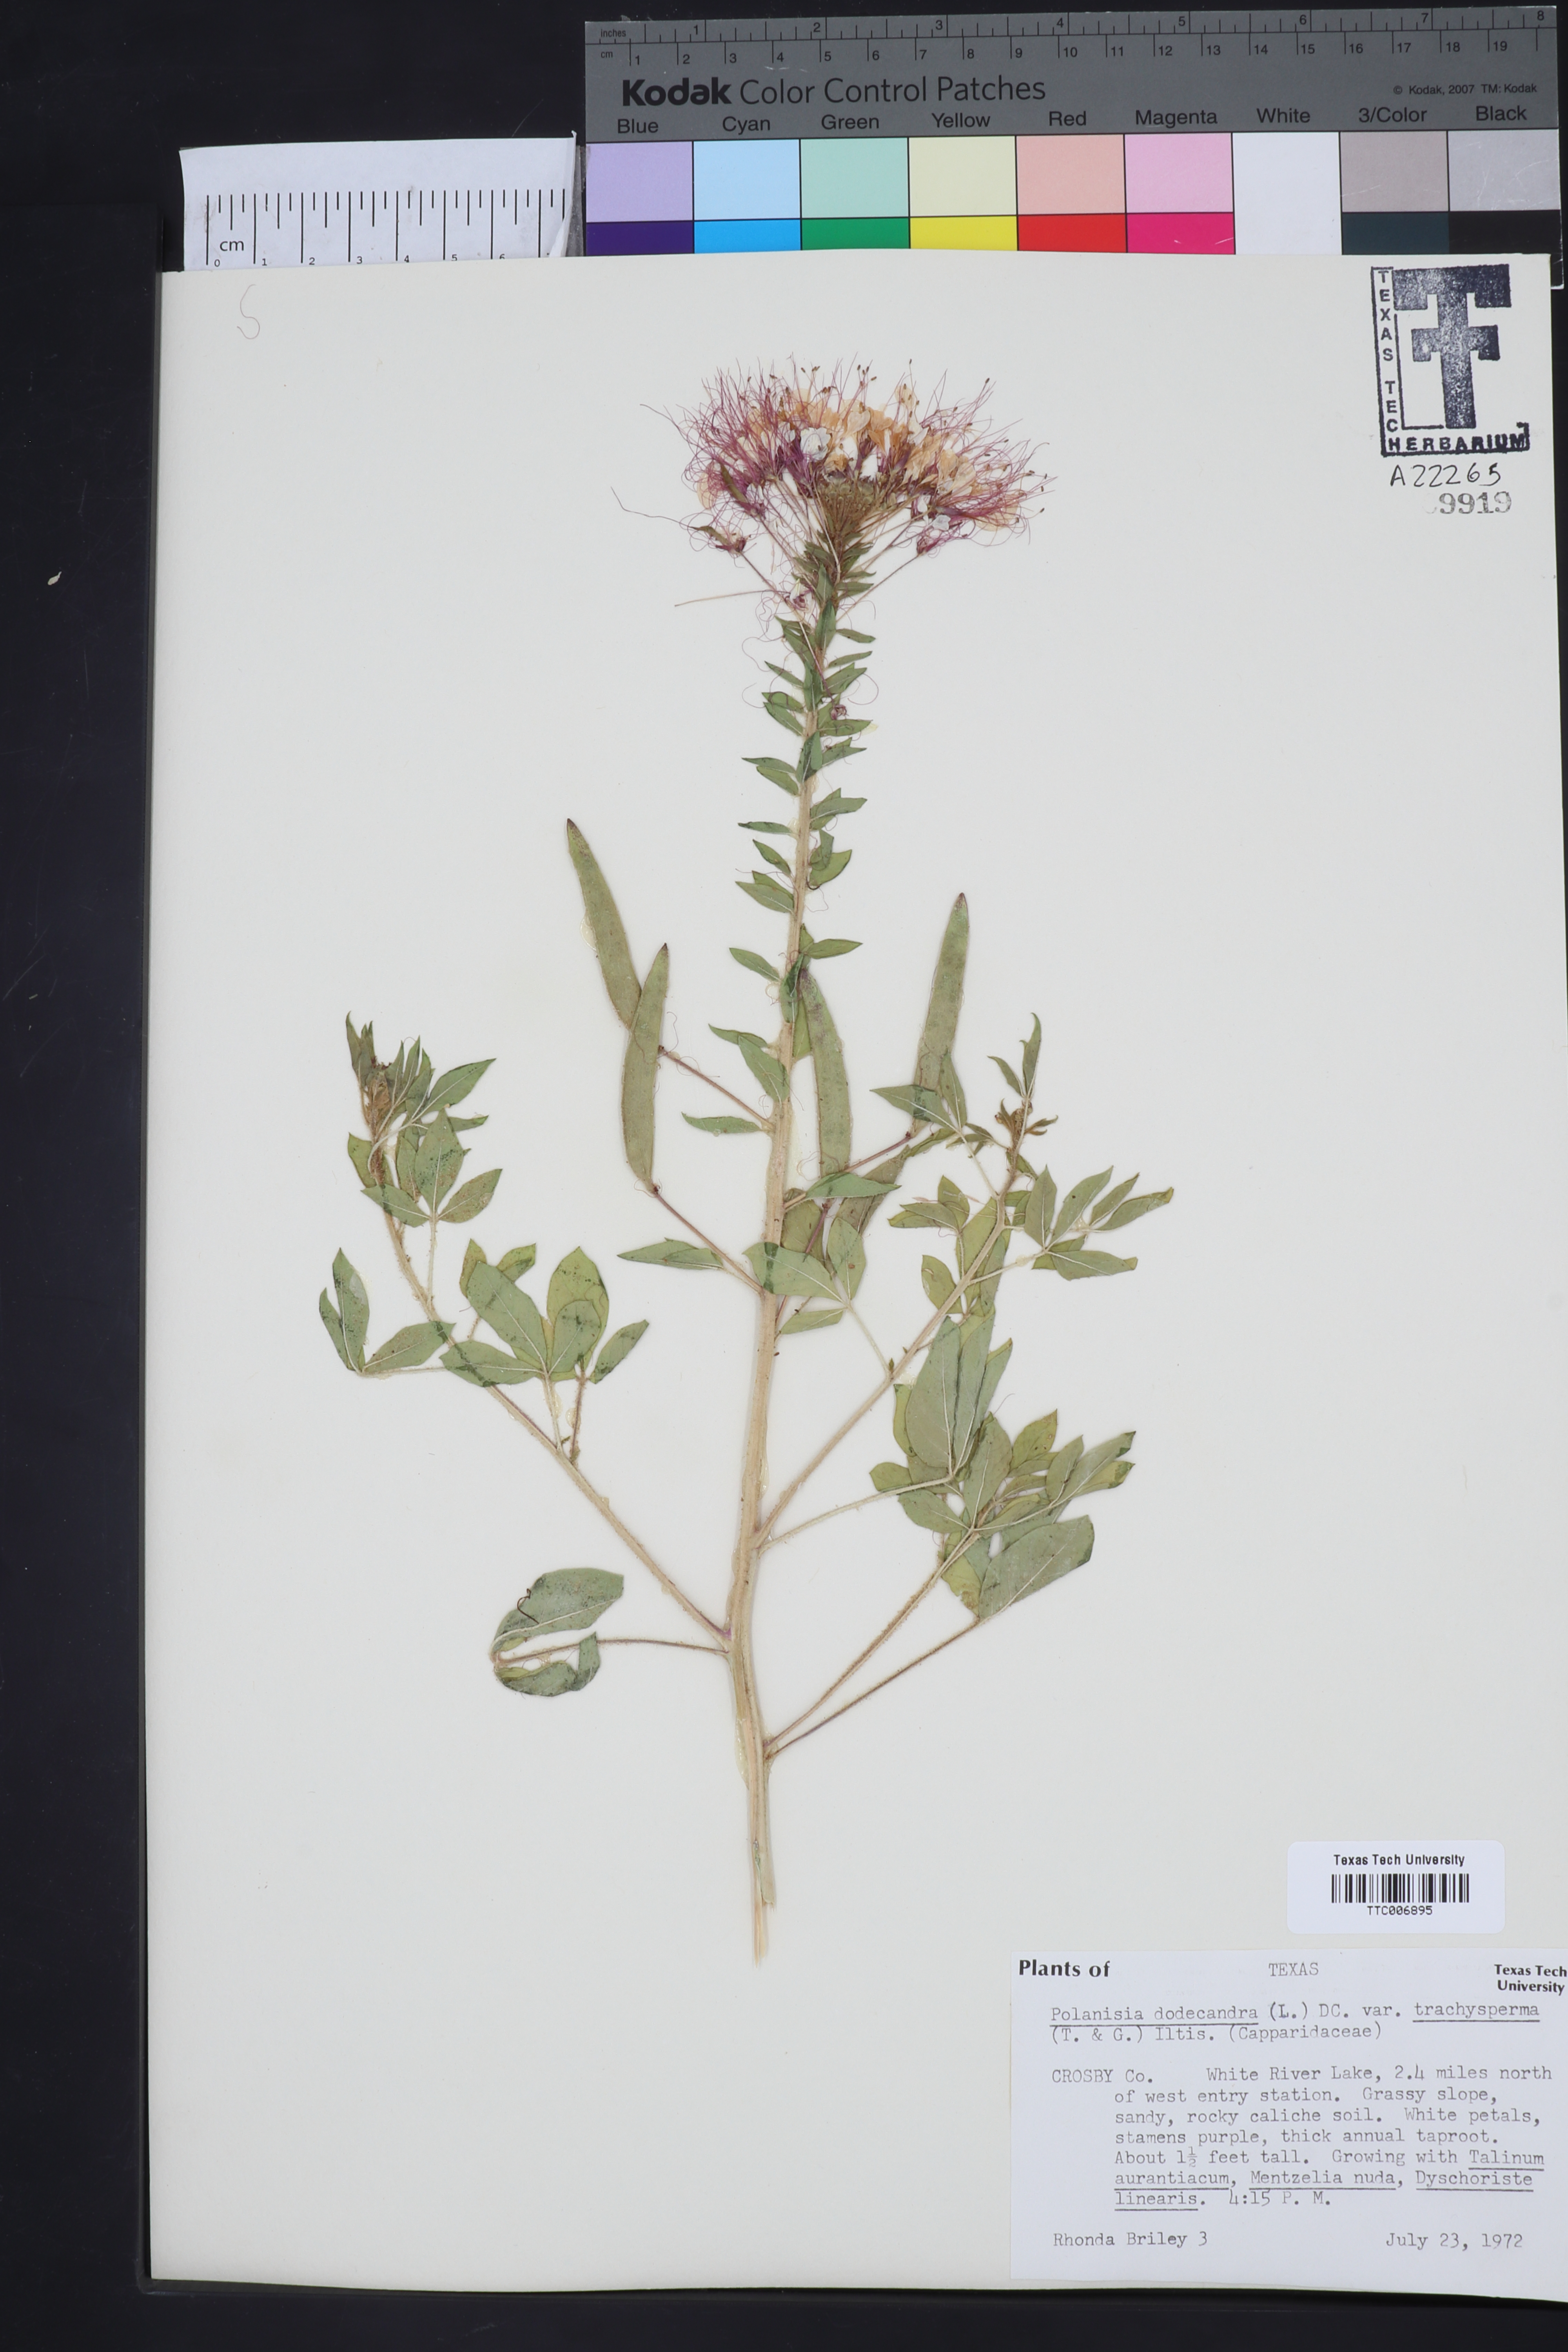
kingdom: Plantae
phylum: Tracheophyta
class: Magnoliopsida
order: Brassicales
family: Cleomaceae
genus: Polanisia
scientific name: Polanisia trachysperma
